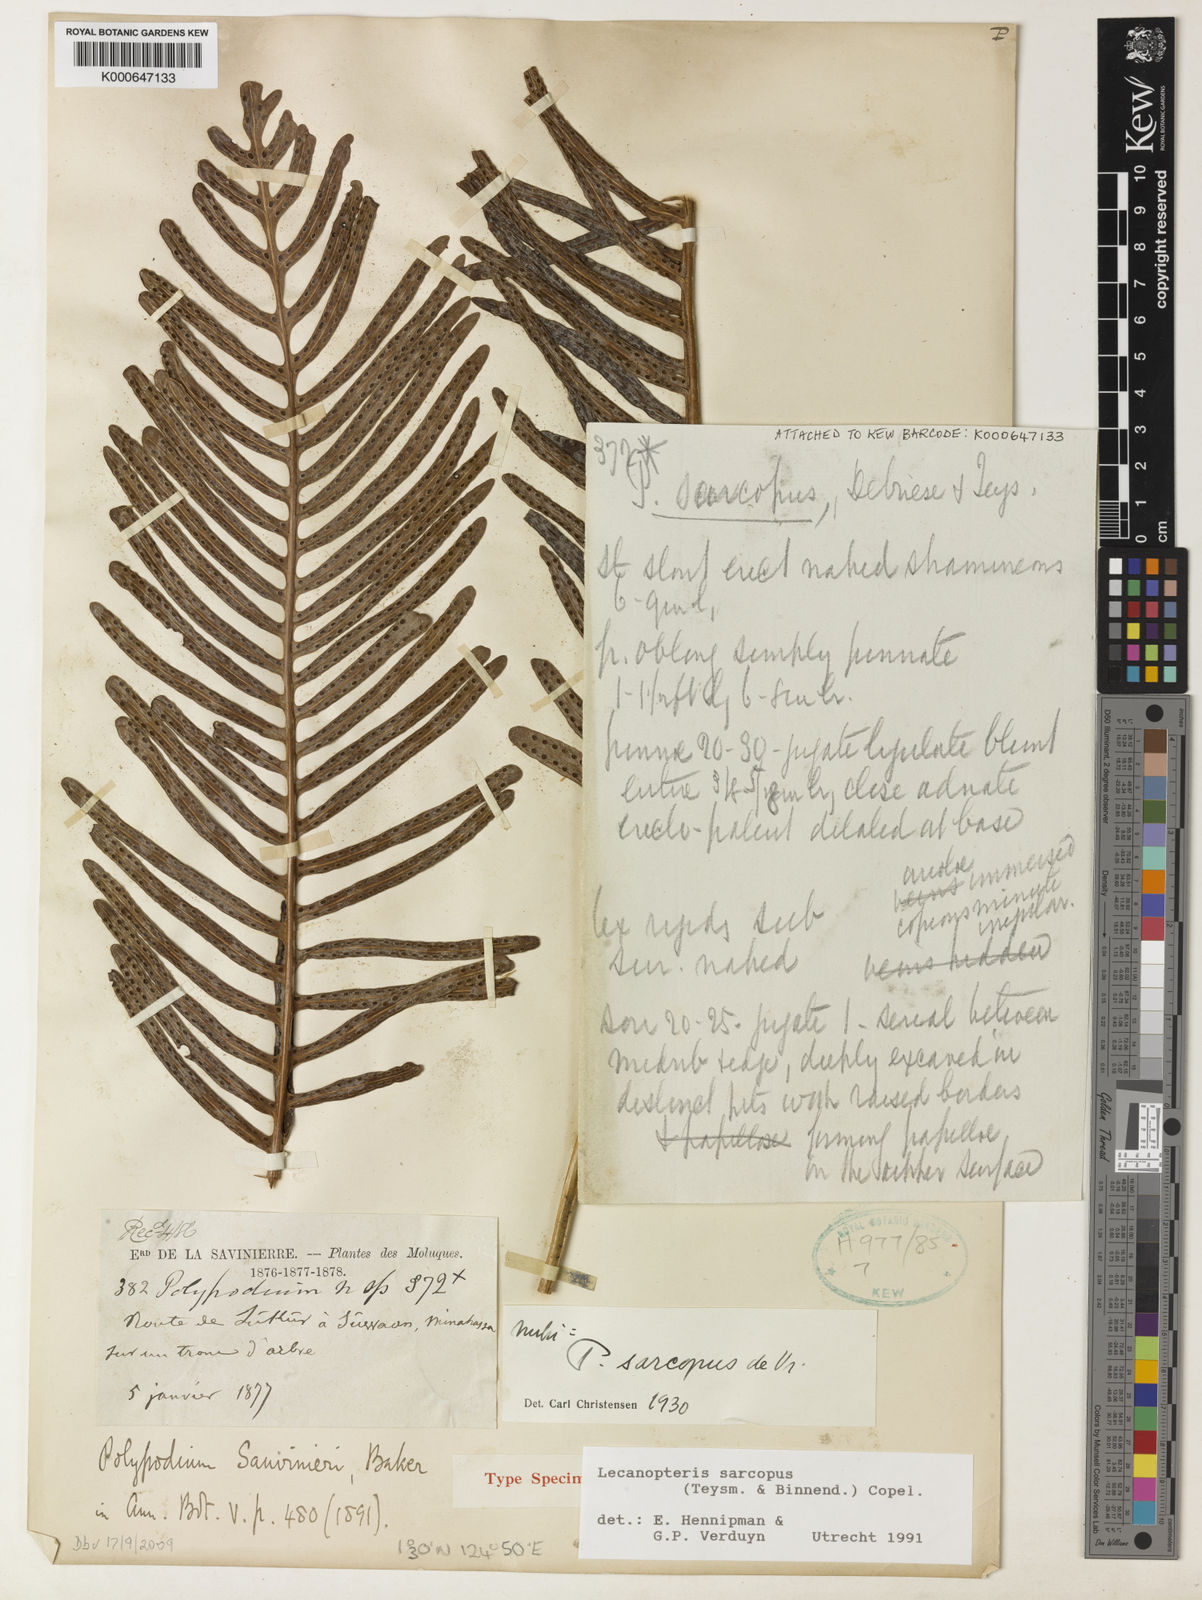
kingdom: Plantae
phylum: Tracheophyta
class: Polypodiopsida
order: Polypodiales
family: Polypodiaceae
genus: Lecanopteris
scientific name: Lecanopteris sarcopus
